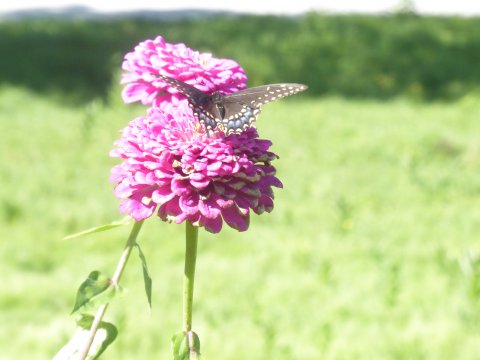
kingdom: Animalia
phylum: Arthropoda
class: Insecta
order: Lepidoptera
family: Papilionidae
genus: Papilio
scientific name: Papilio polyxenes
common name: Black Swallowtail
